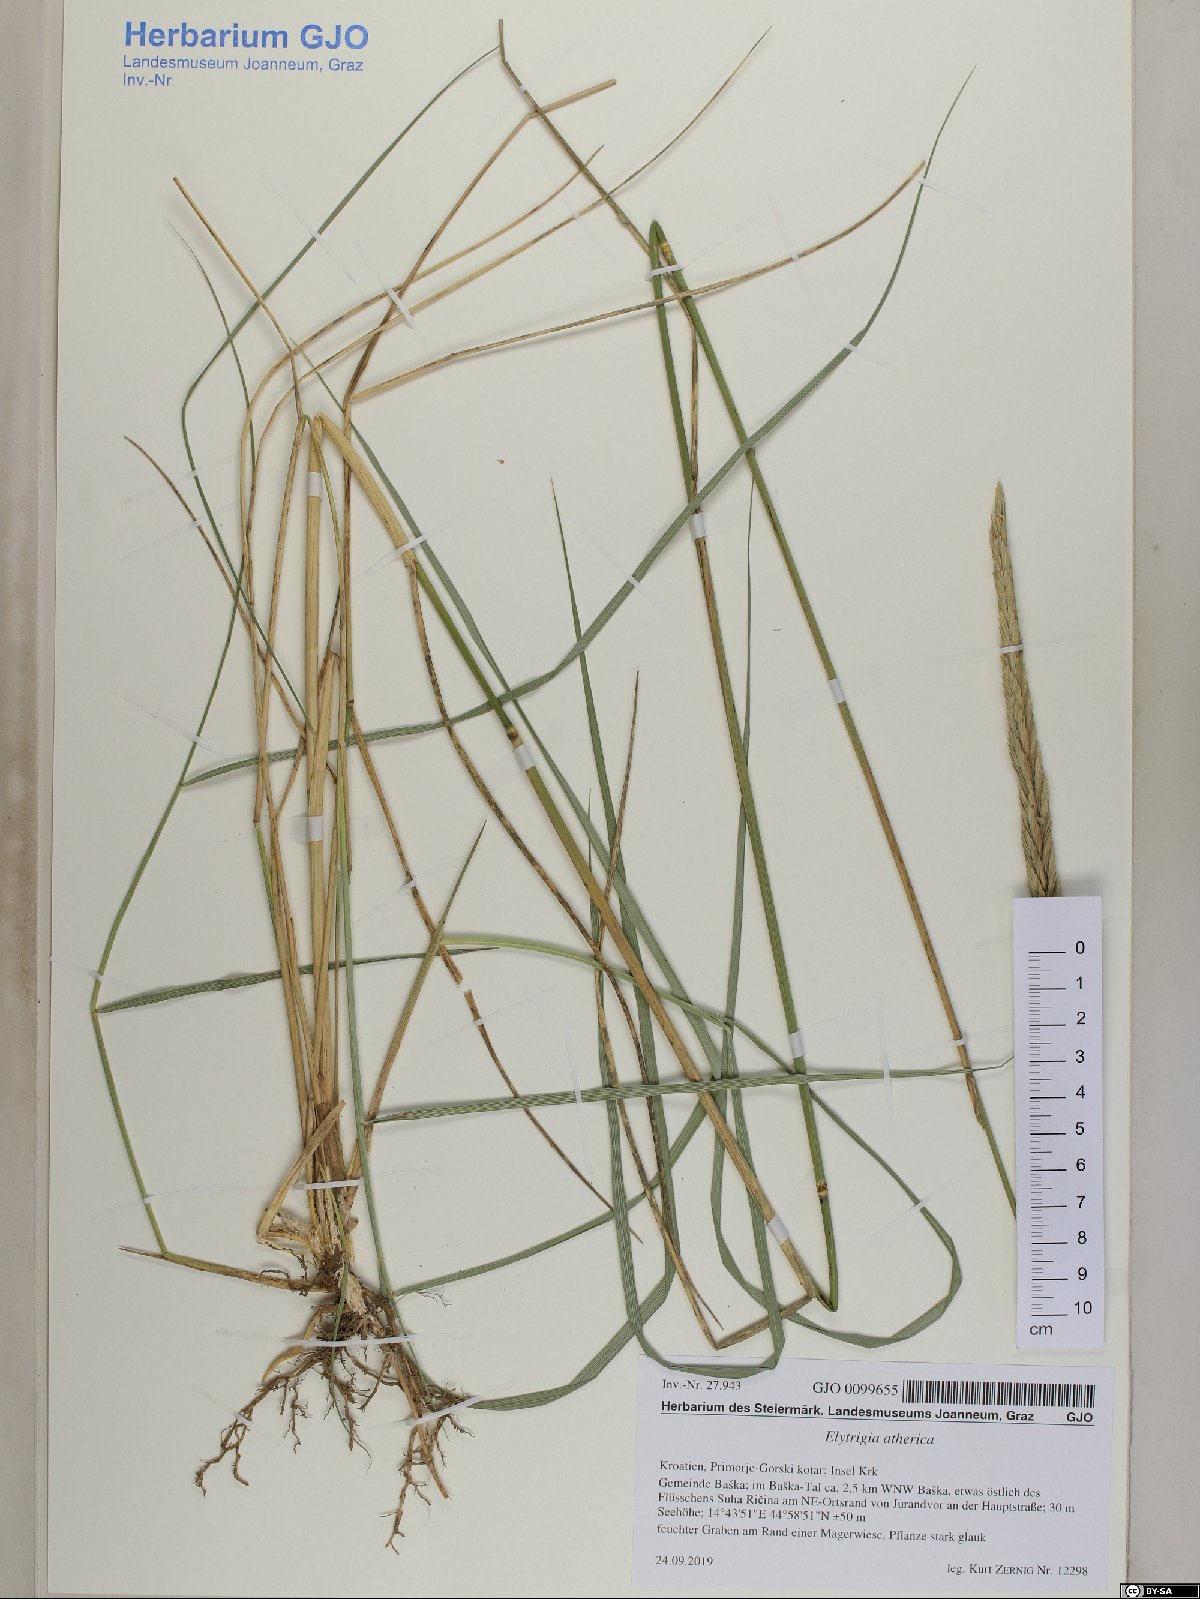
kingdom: Plantae
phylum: Tracheophyta
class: Liliopsida
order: Poales
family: Poaceae
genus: Elymus
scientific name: Elymus athericus
